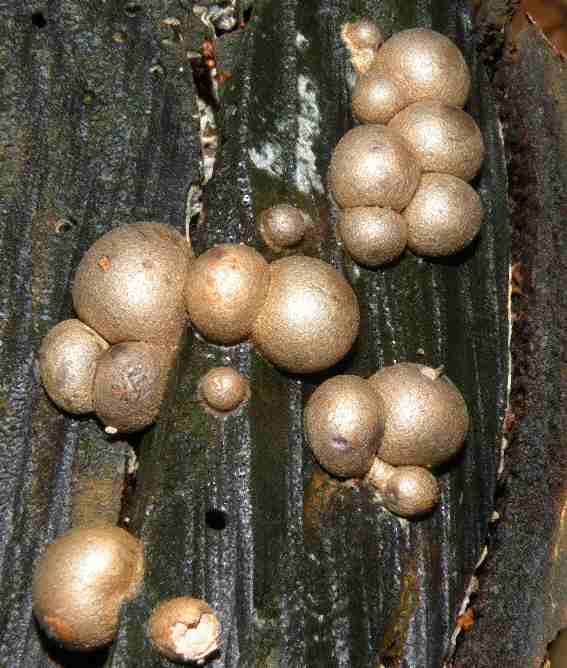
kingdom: Protozoa
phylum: Mycetozoa
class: Myxomycetes
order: Cribrariales
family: Tubiferaceae
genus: Lycogala
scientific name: Lycogala epidendrum
